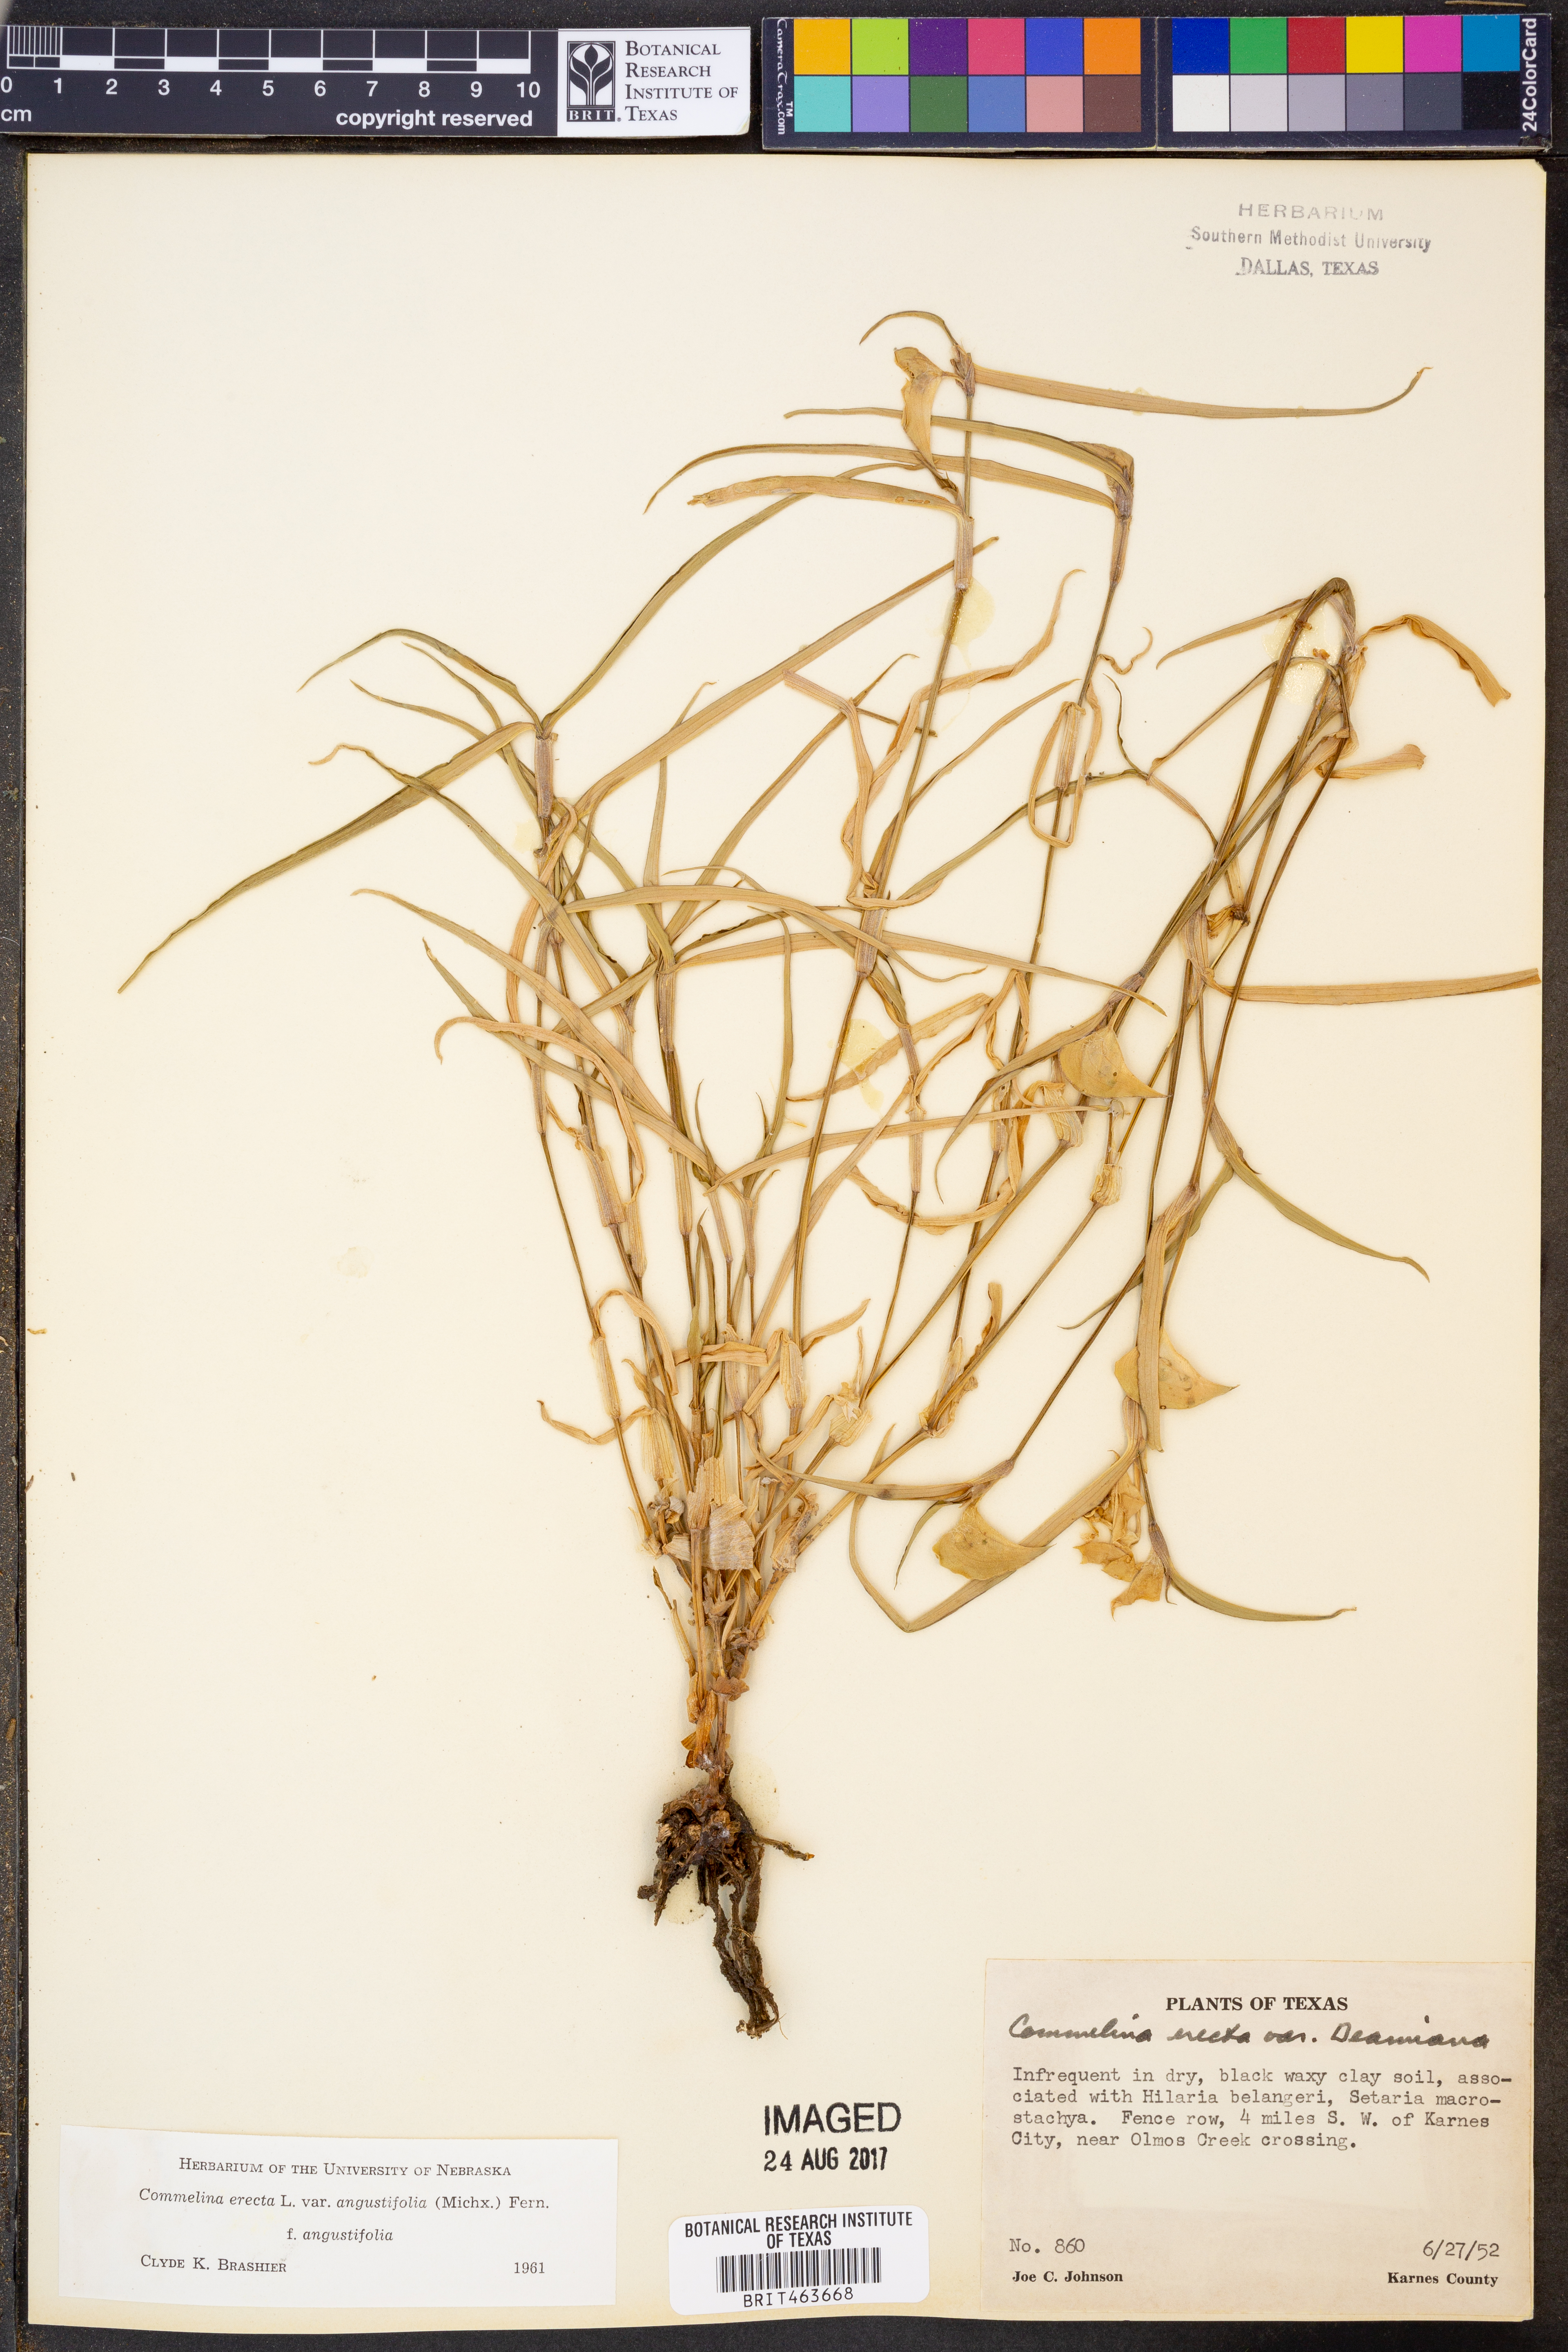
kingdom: Plantae
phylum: Tracheophyta
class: Liliopsida
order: Commelinales
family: Commelinaceae
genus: Commelina
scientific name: Commelina erecta
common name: Blousel blommetjie
